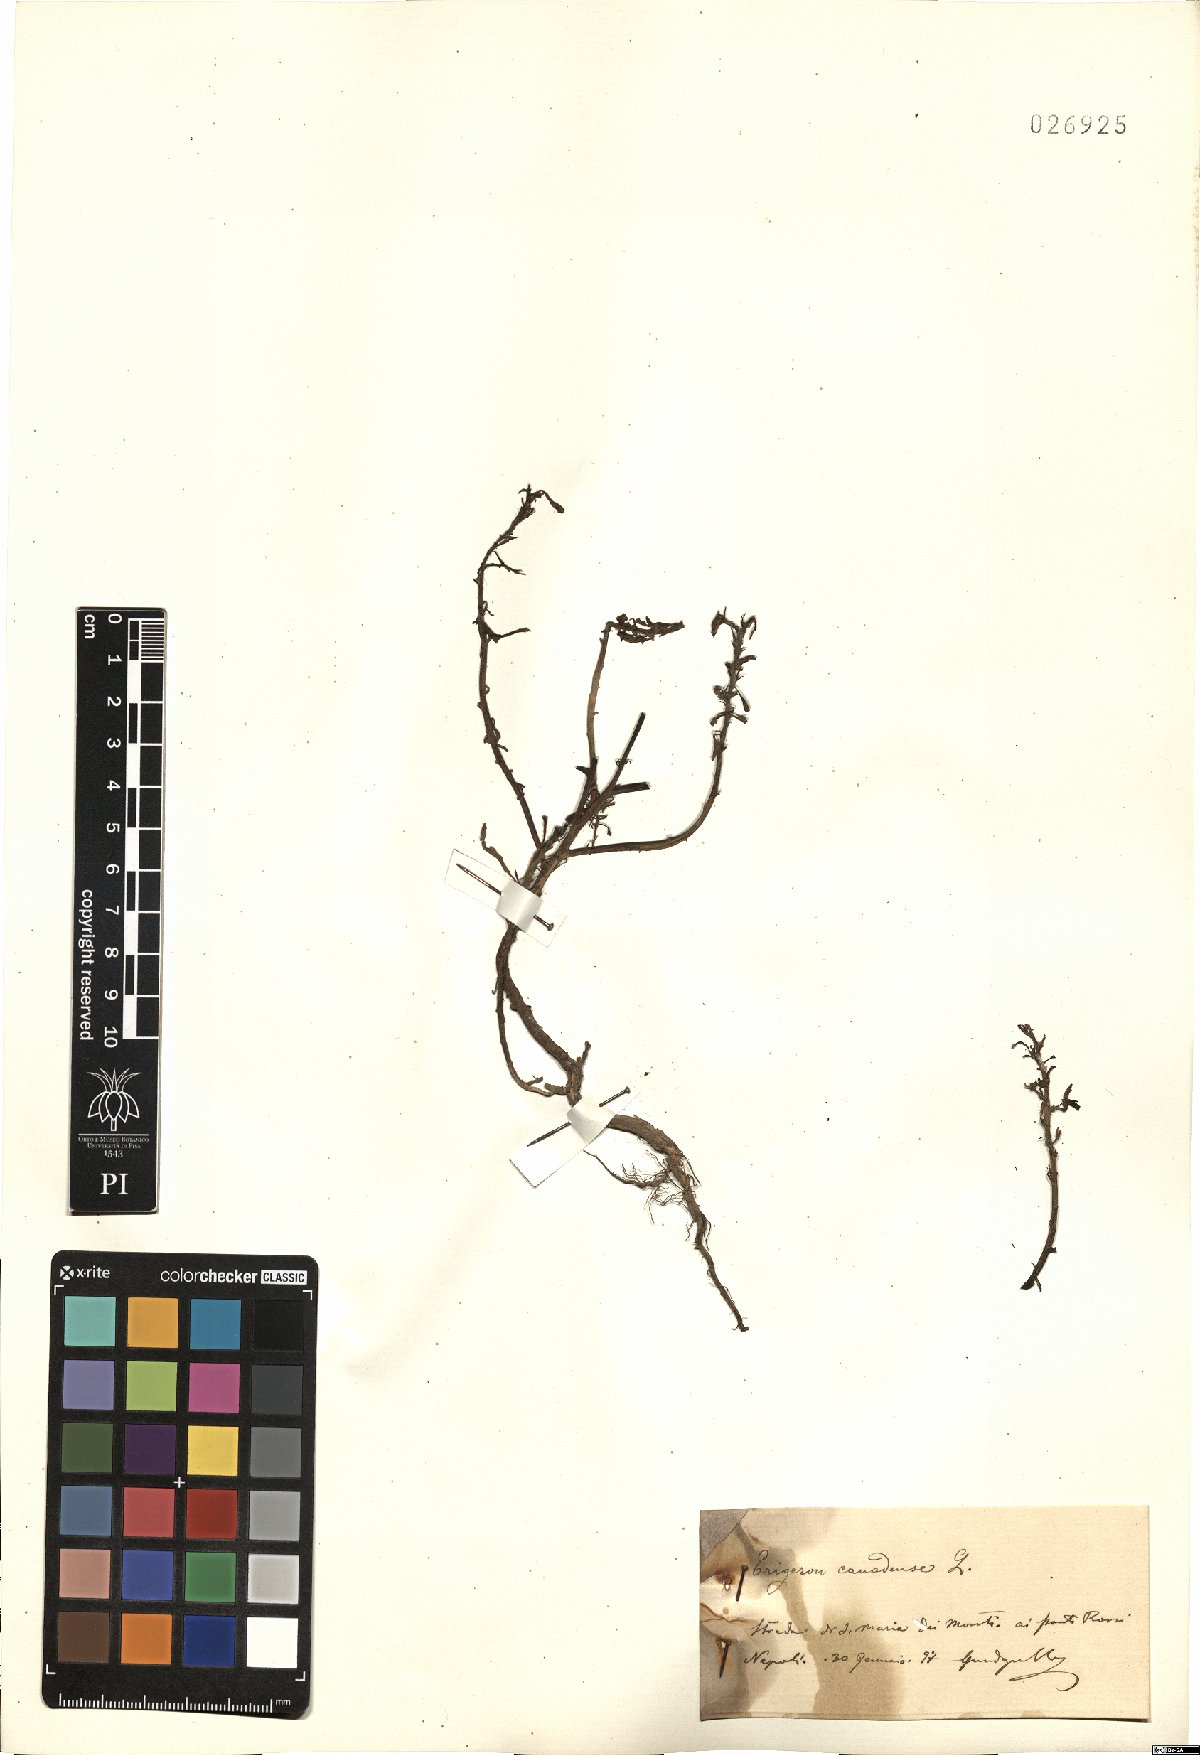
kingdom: Plantae
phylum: Tracheophyta
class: Magnoliopsida
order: Asterales
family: Asteraceae
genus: Erigeron
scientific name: Erigeron canadensis
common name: Canadian fleabane
